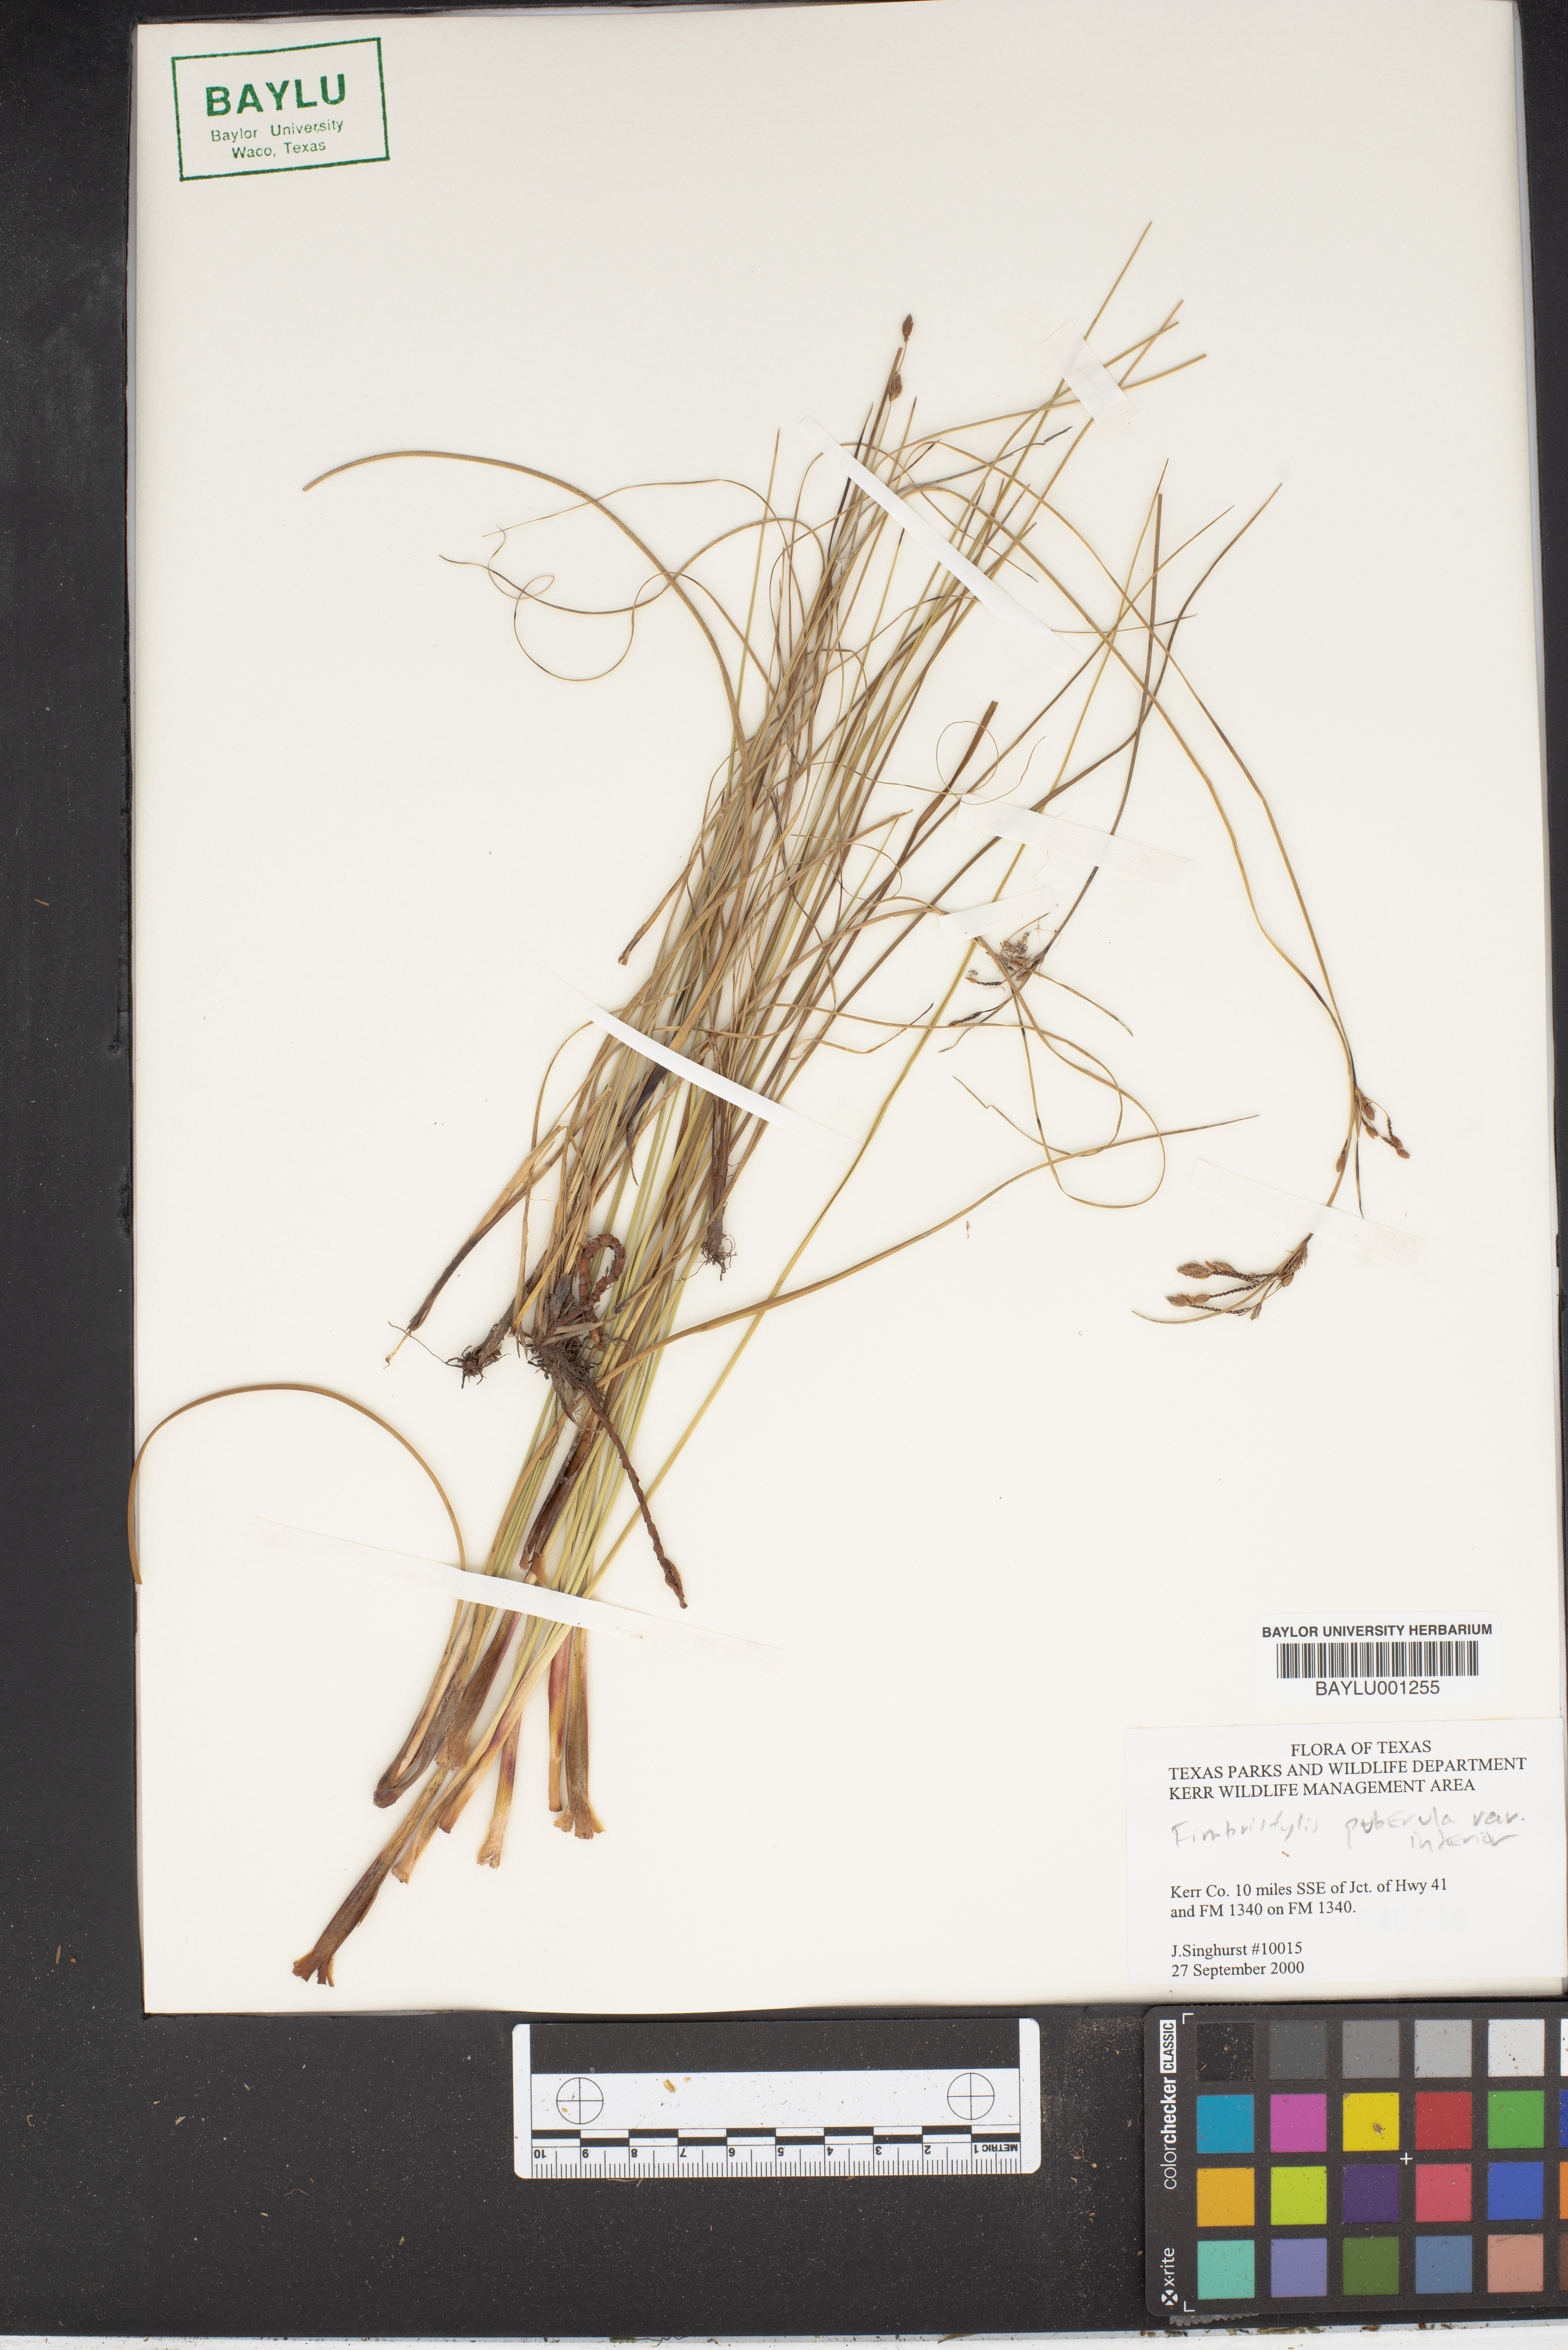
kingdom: Plantae
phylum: Tracheophyta
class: Liliopsida
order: Poales
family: Cyperaceae
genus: Fimbristylis
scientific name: Fimbristylis puberula
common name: Hairy fimbristylis
